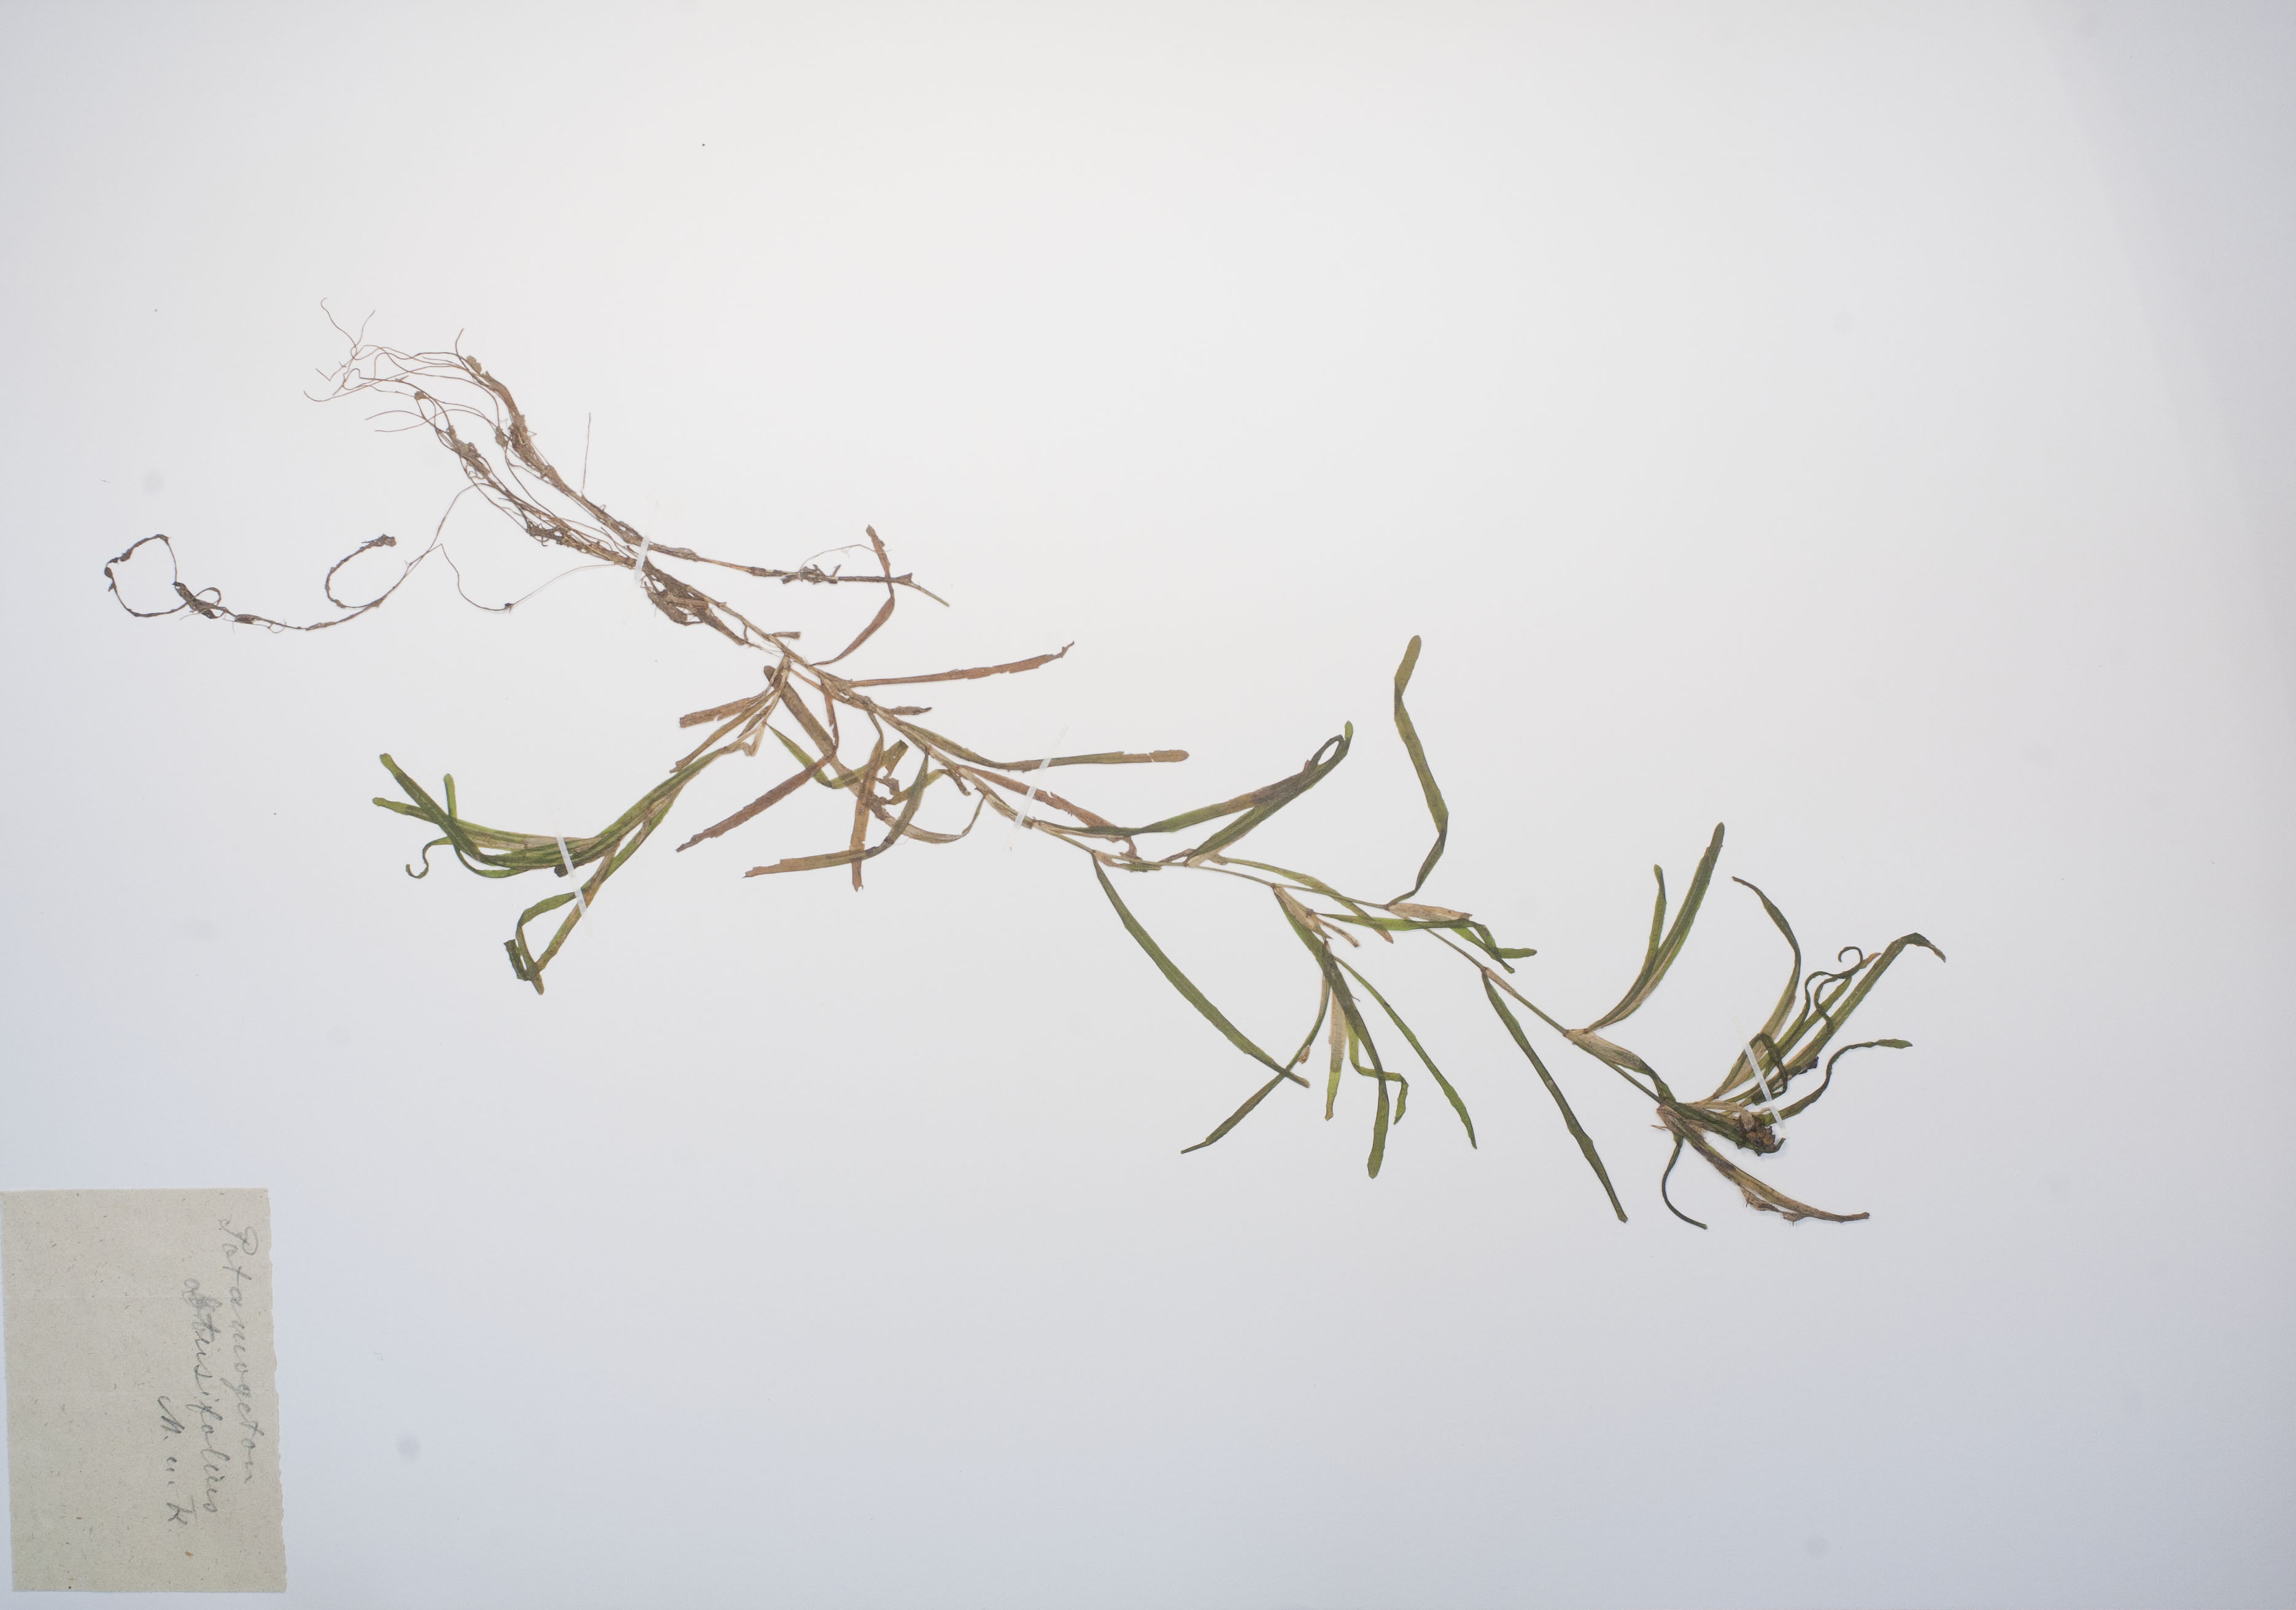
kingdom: Plantae
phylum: Tracheophyta
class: Liliopsida
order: Alismatales
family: Potamogetonaceae
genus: Potamogeton
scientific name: Potamogeton obtusifolius
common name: Blunt-leaved pondweed
